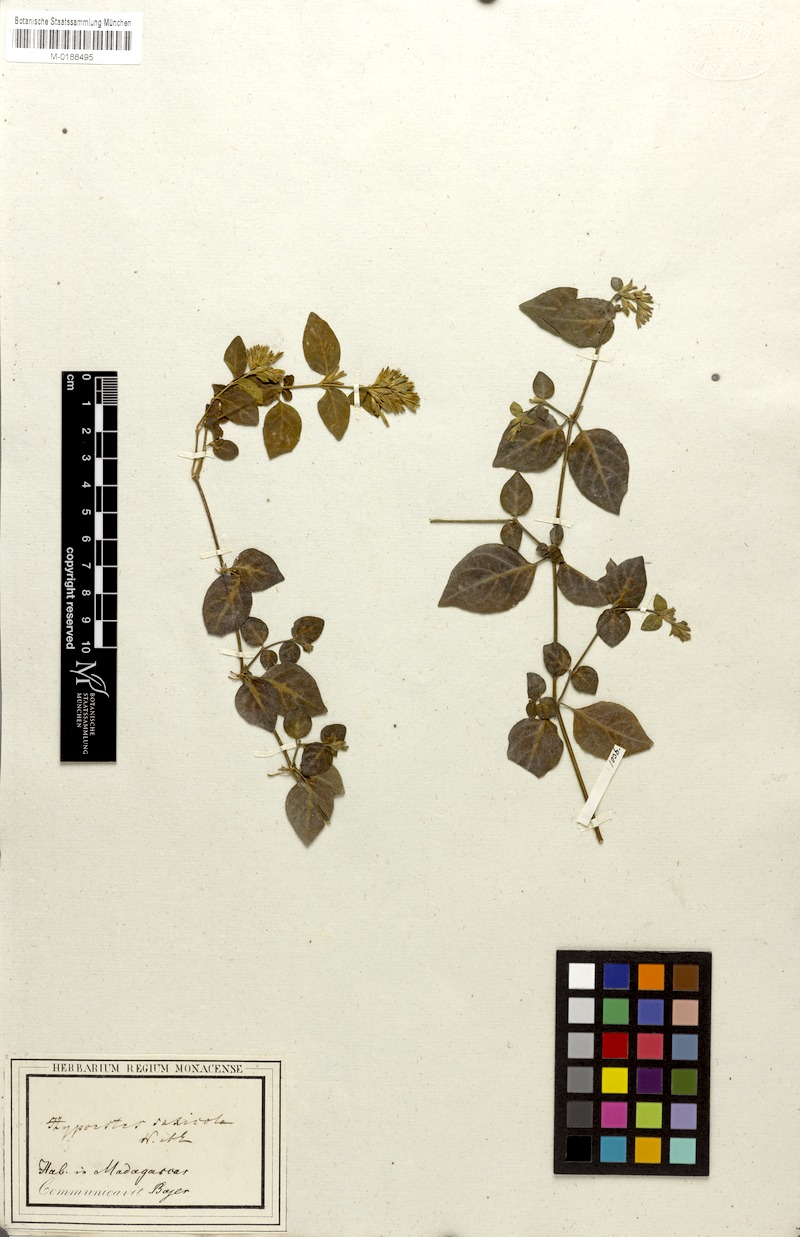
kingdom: Plantae
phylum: Tracheophyta
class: Magnoliopsida
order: Lamiales
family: Acanthaceae
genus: Hypoestes
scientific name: Hypoestes saxicola
